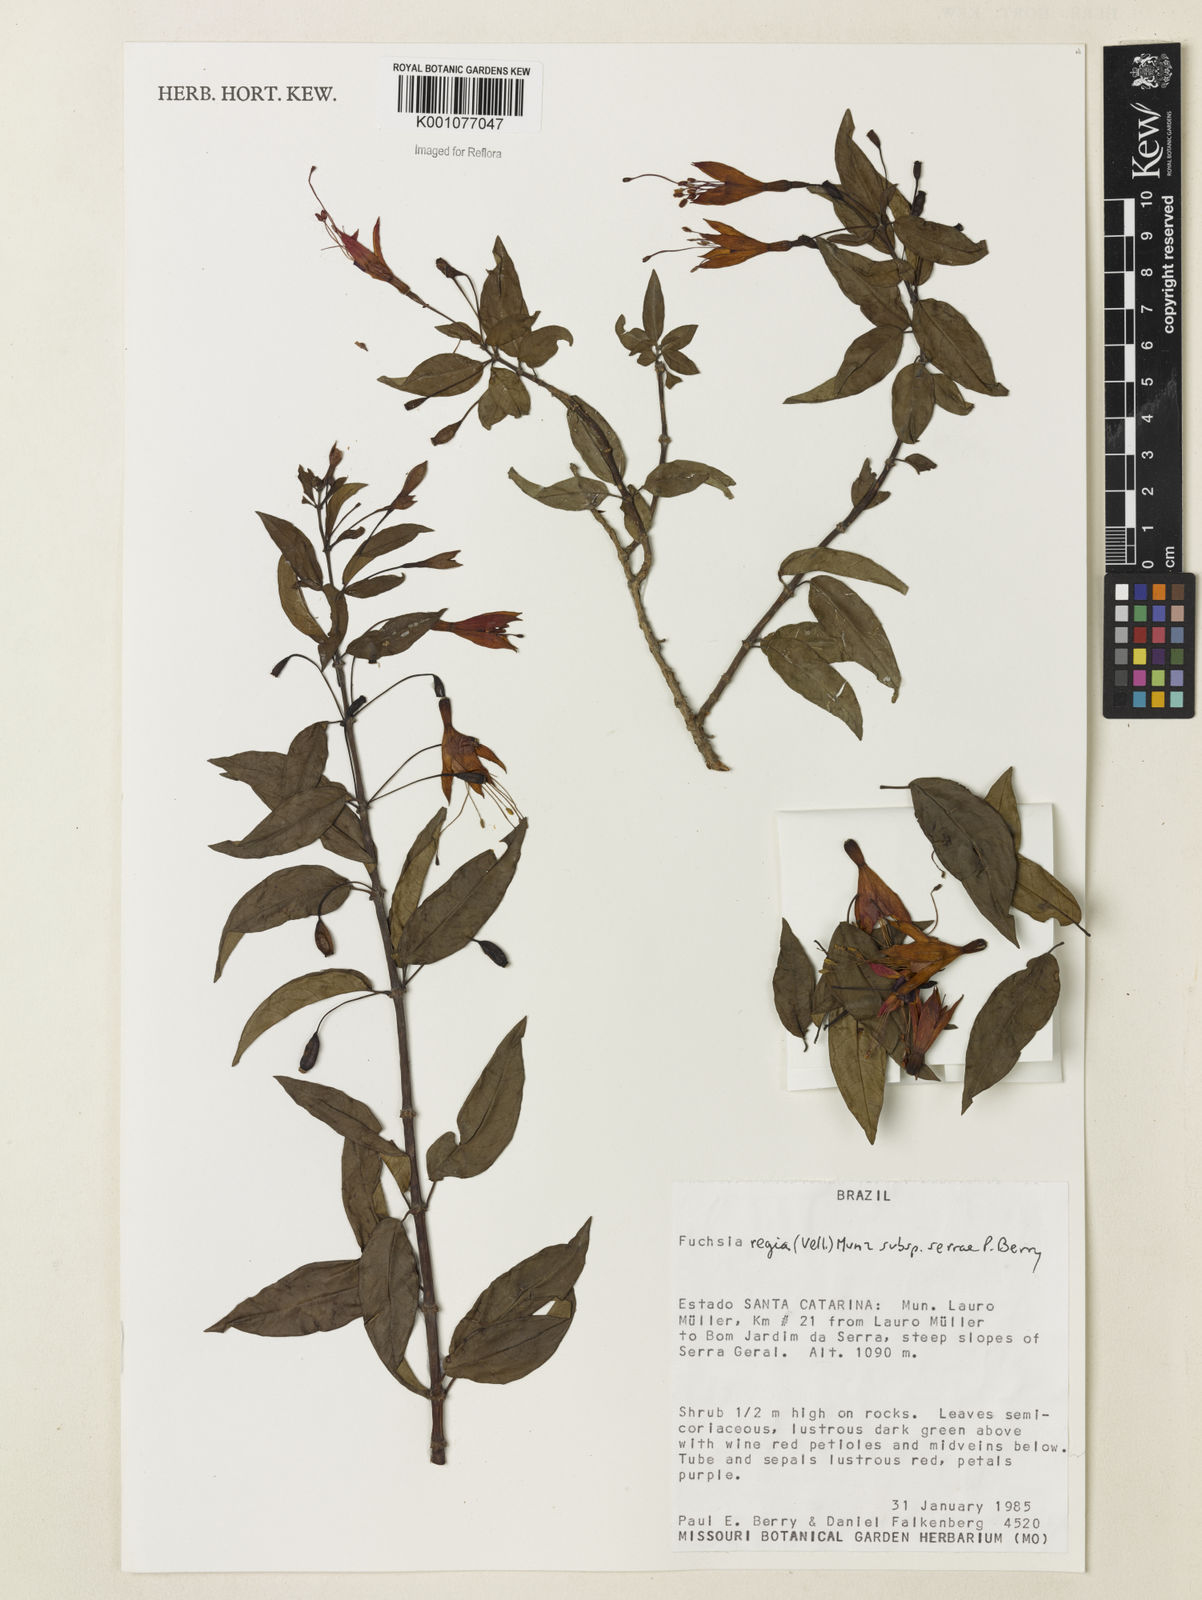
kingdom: Plantae
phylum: Tracheophyta
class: Magnoliopsida
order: Myrtales
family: Onagraceae
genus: Fuchsia
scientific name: Fuchsia regia
